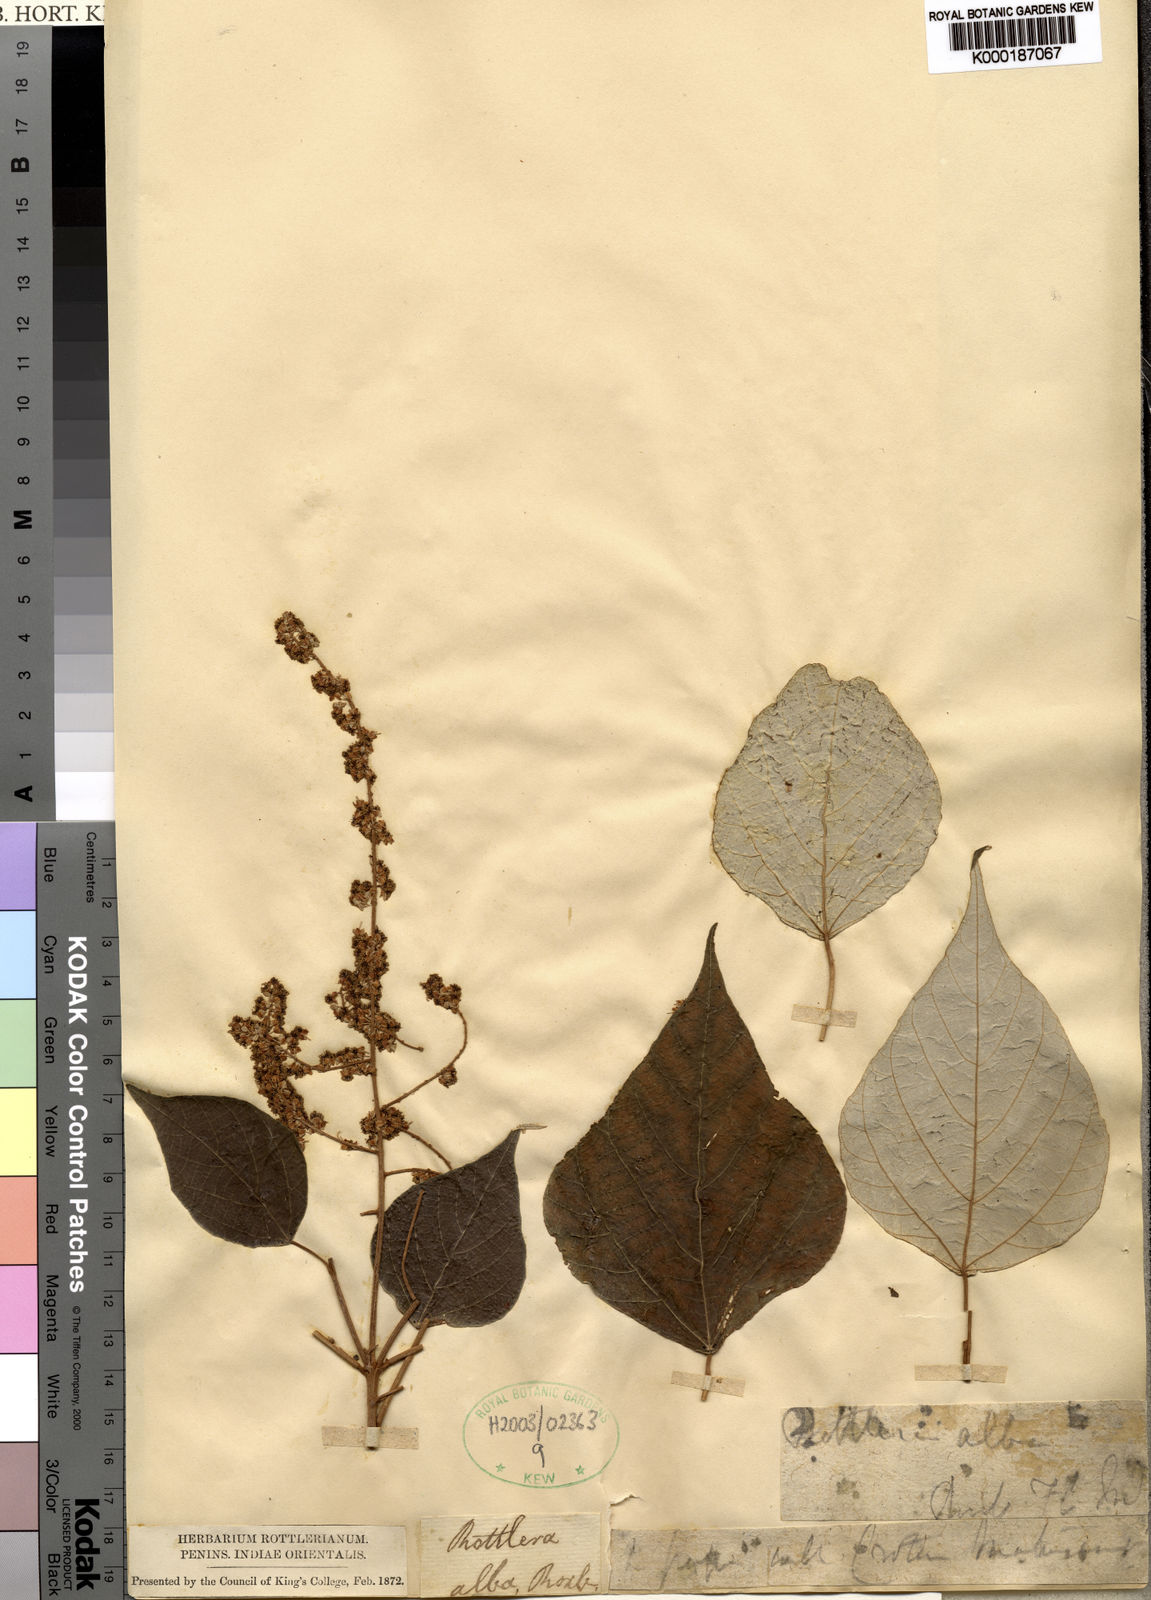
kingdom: Plantae
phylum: Tracheophyta
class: Magnoliopsida
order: Malpighiales
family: Euphorbiaceae
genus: Mallotus
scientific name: Mallotus macrostachyus
